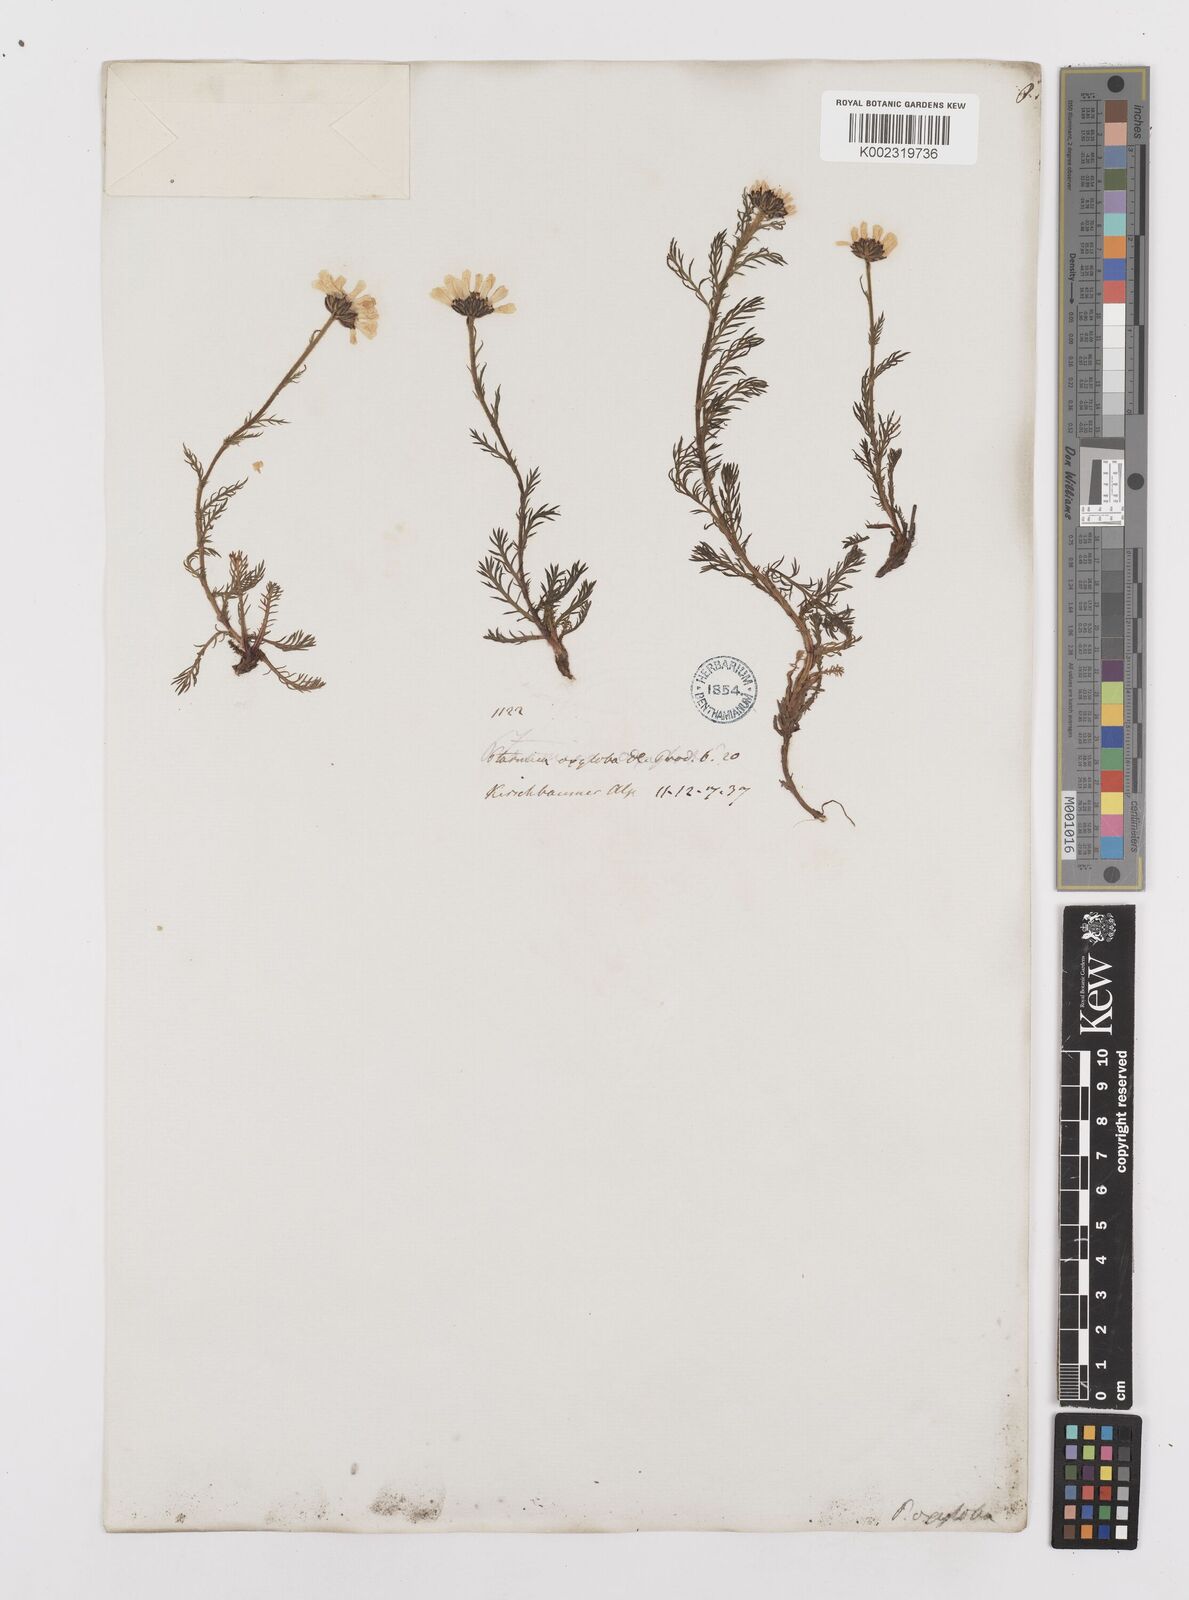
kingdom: Plantae
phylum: Tracheophyta
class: Magnoliopsida
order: Asterales
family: Asteraceae
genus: Achillea
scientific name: Achillea oxyloba
